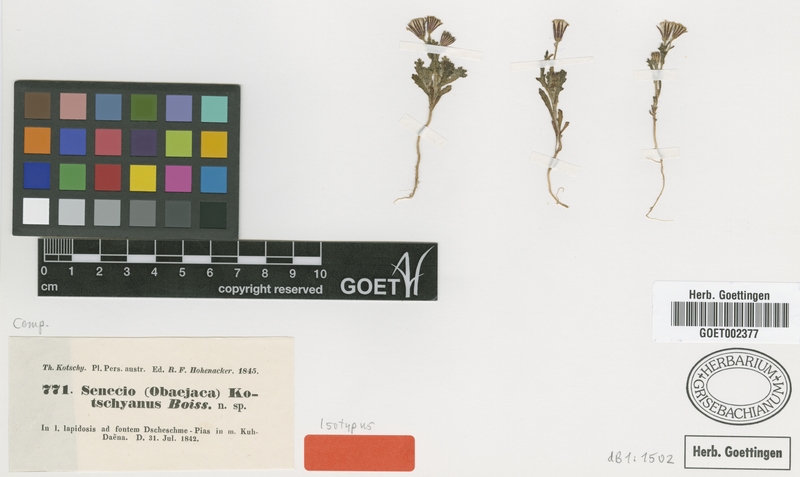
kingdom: Plantae
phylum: Tracheophyta
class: Magnoliopsida
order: Asterales
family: Asteraceae
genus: Senecio
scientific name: Senecio kotschyanus
